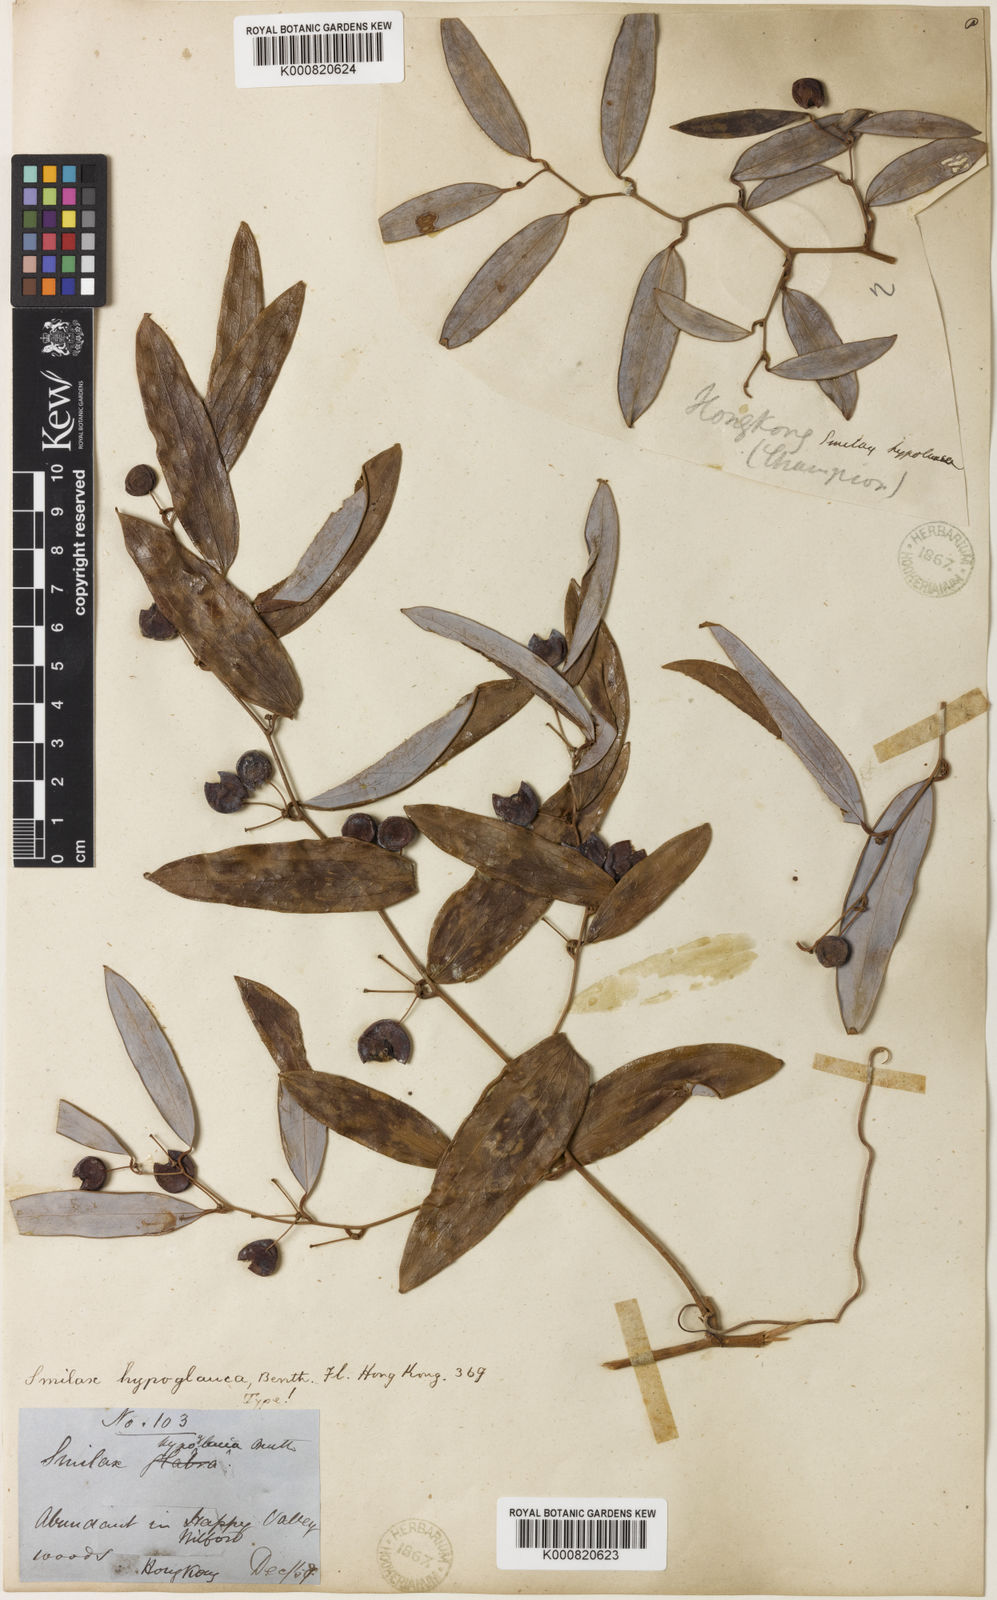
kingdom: Plantae
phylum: Tracheophyta
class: Liliopsida
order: Liliales
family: Smilacaceae
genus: Smilax
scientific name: Smilax hypoglauca
